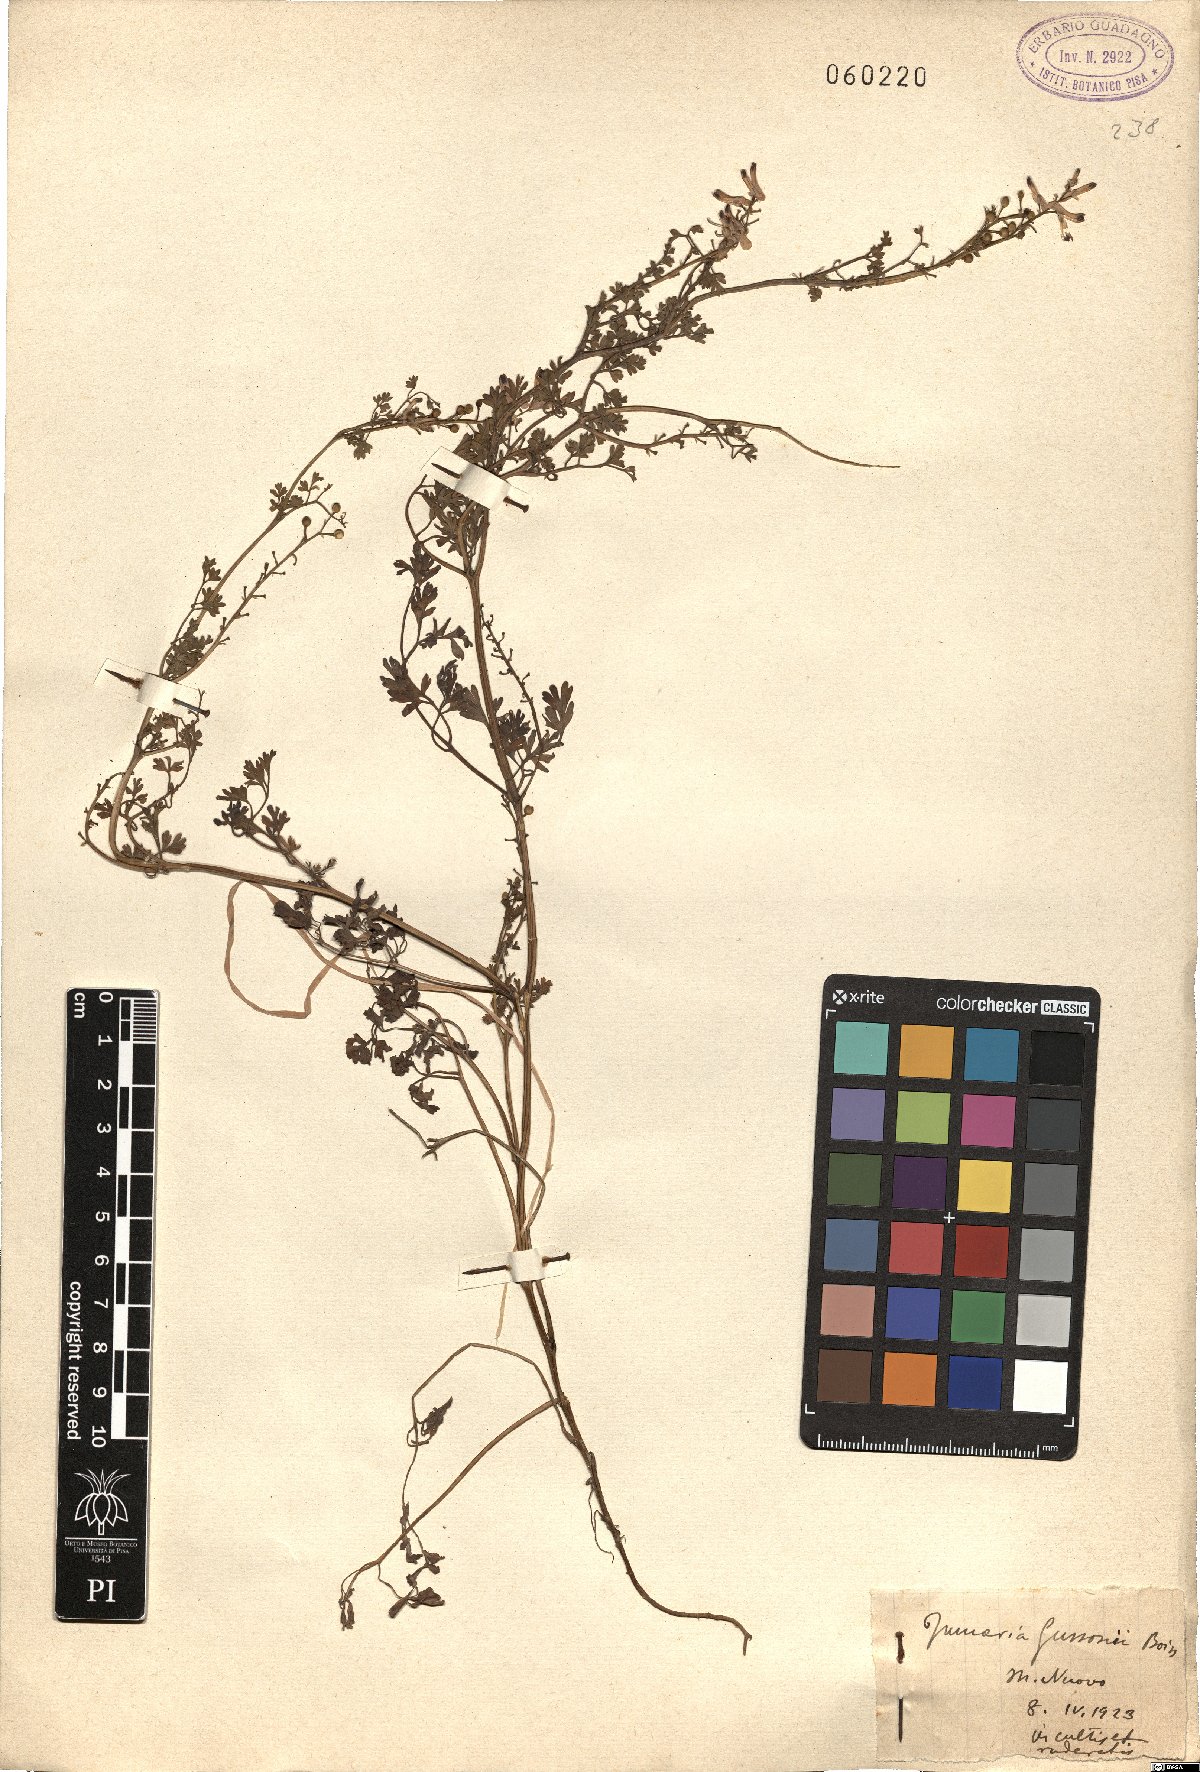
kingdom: Plantae
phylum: Tracheophyta
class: Magnoliopsida
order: Ranunculales
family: Papaveraceae
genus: Fumaria
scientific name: Fumaria bastardii
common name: Tall ramping-fumitory
